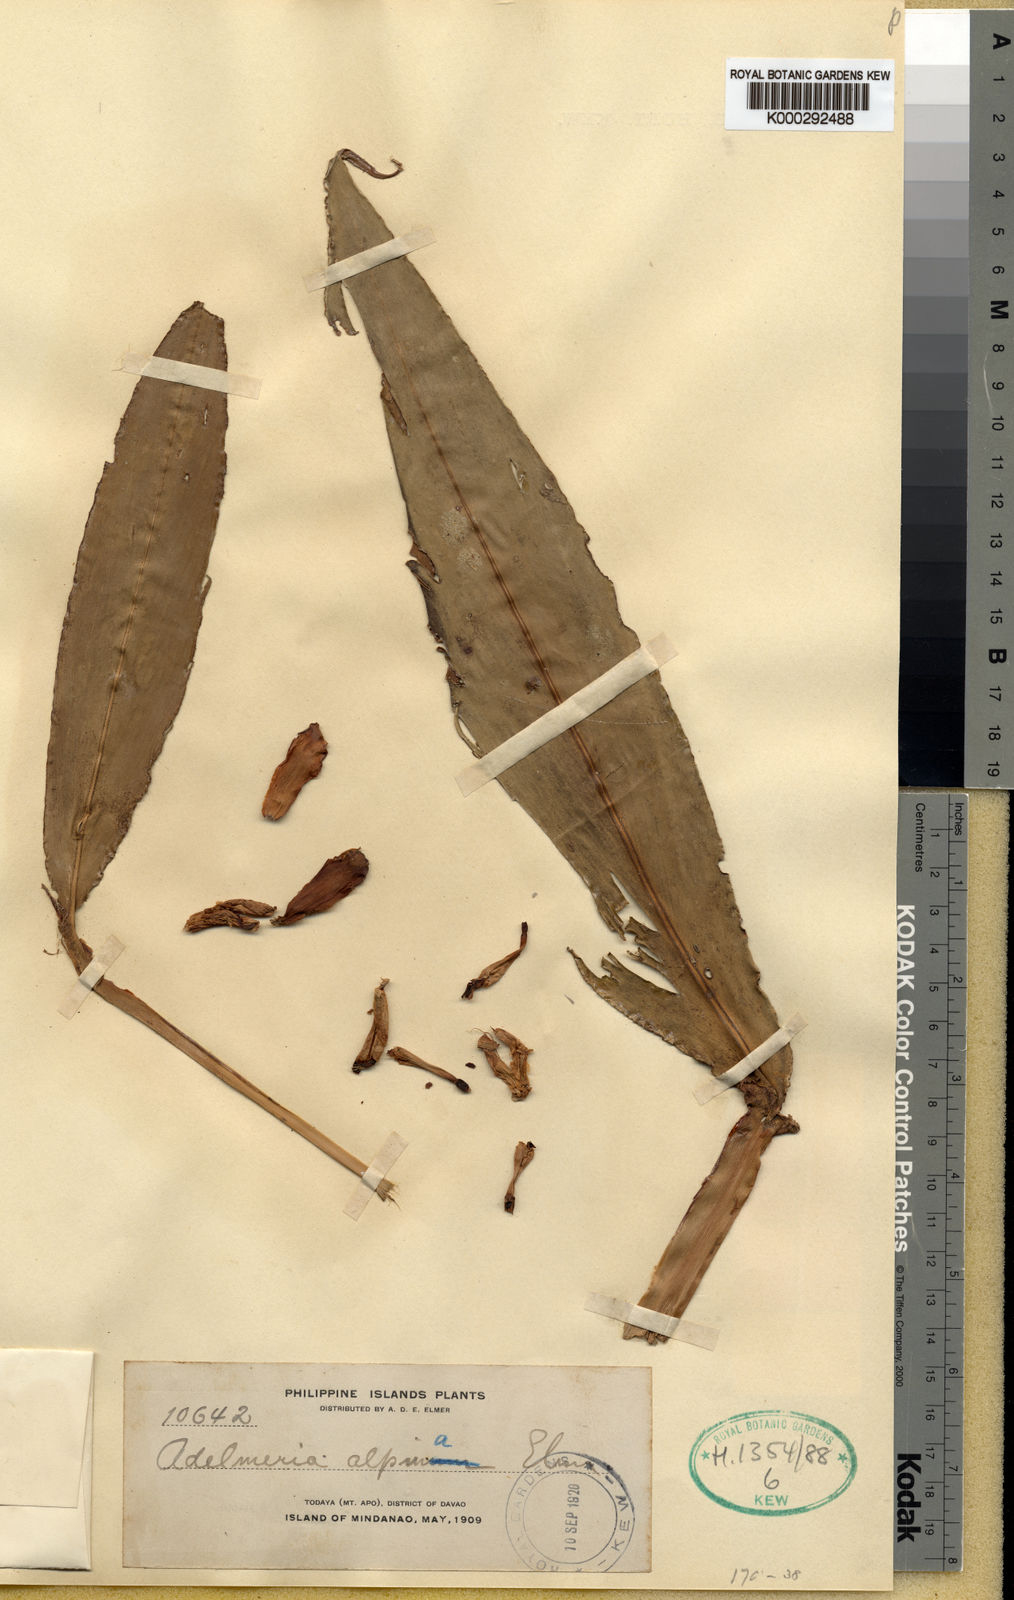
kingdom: Plantae
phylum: Tracheophyta
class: Liliopsida
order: Zingiberales
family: Zingiberaceae
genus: Adelmeria
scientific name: Adelmeria alpinum
